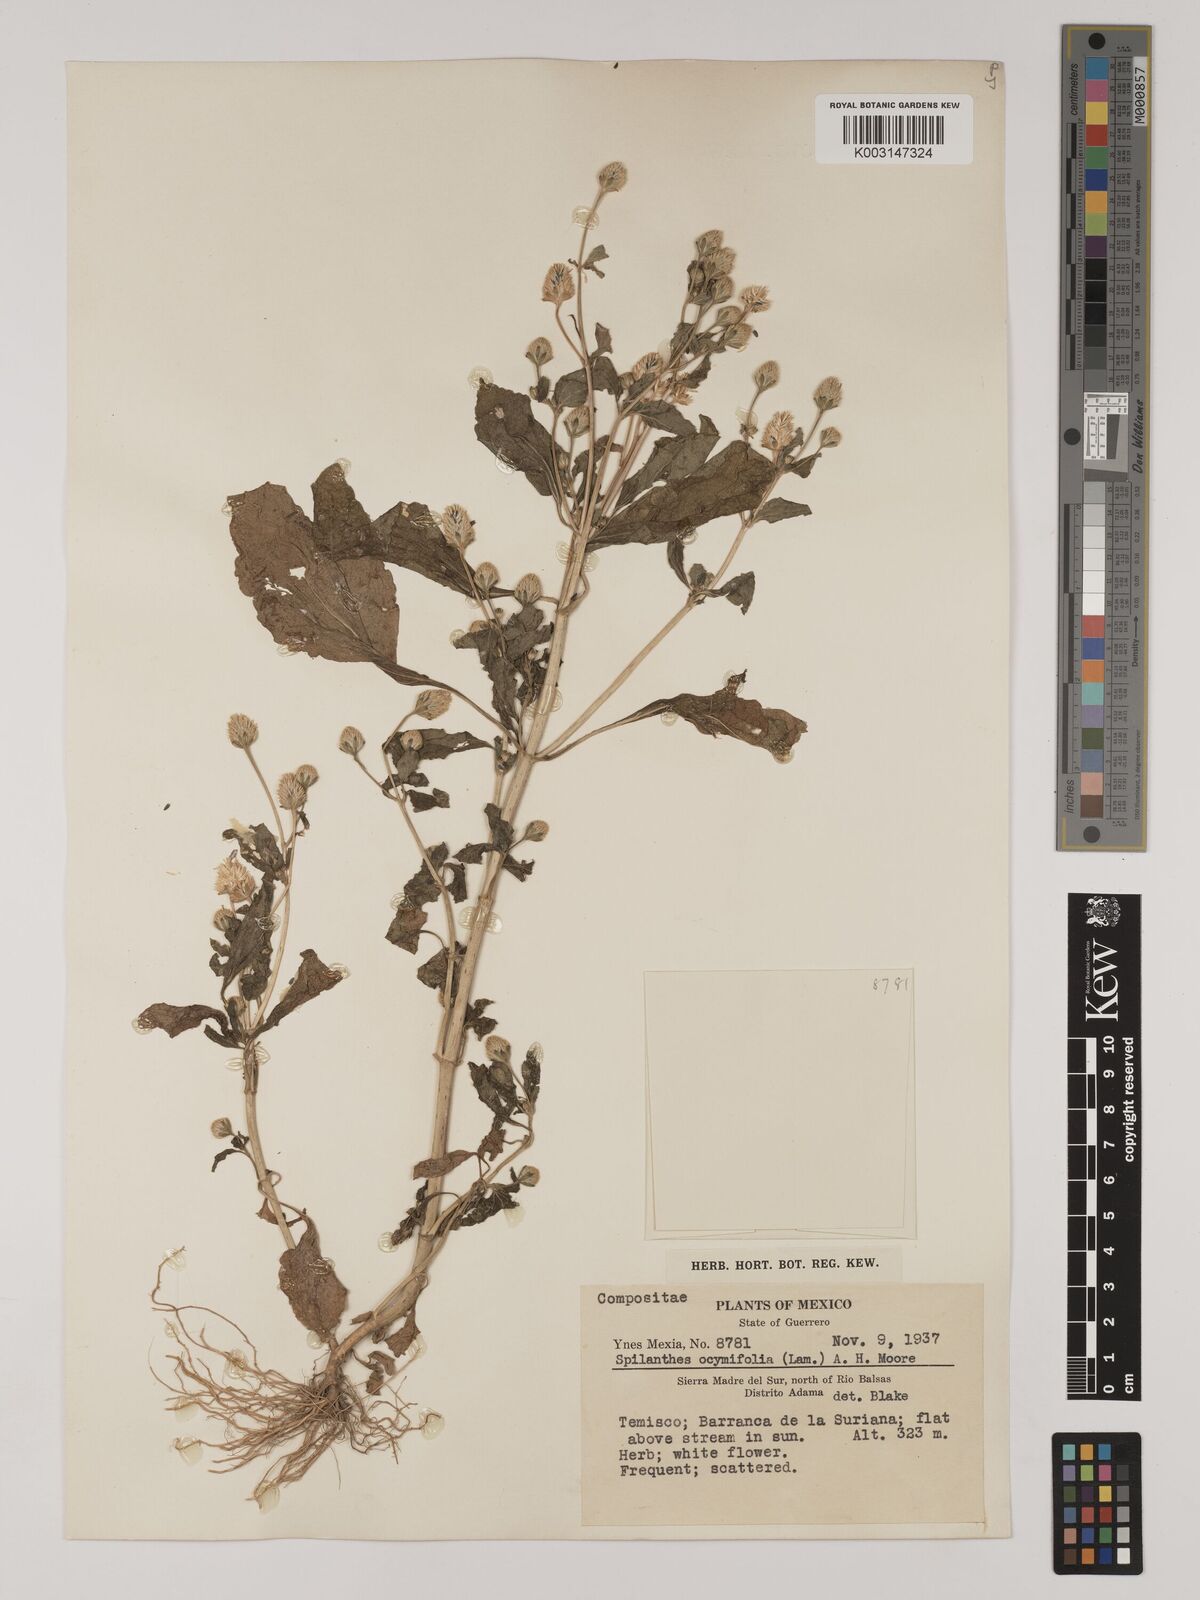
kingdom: Plantae
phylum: Tracheophyta
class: Magnoliopsida
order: Asterales
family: Asteraceae
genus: Acmella
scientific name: Acmella radicans
